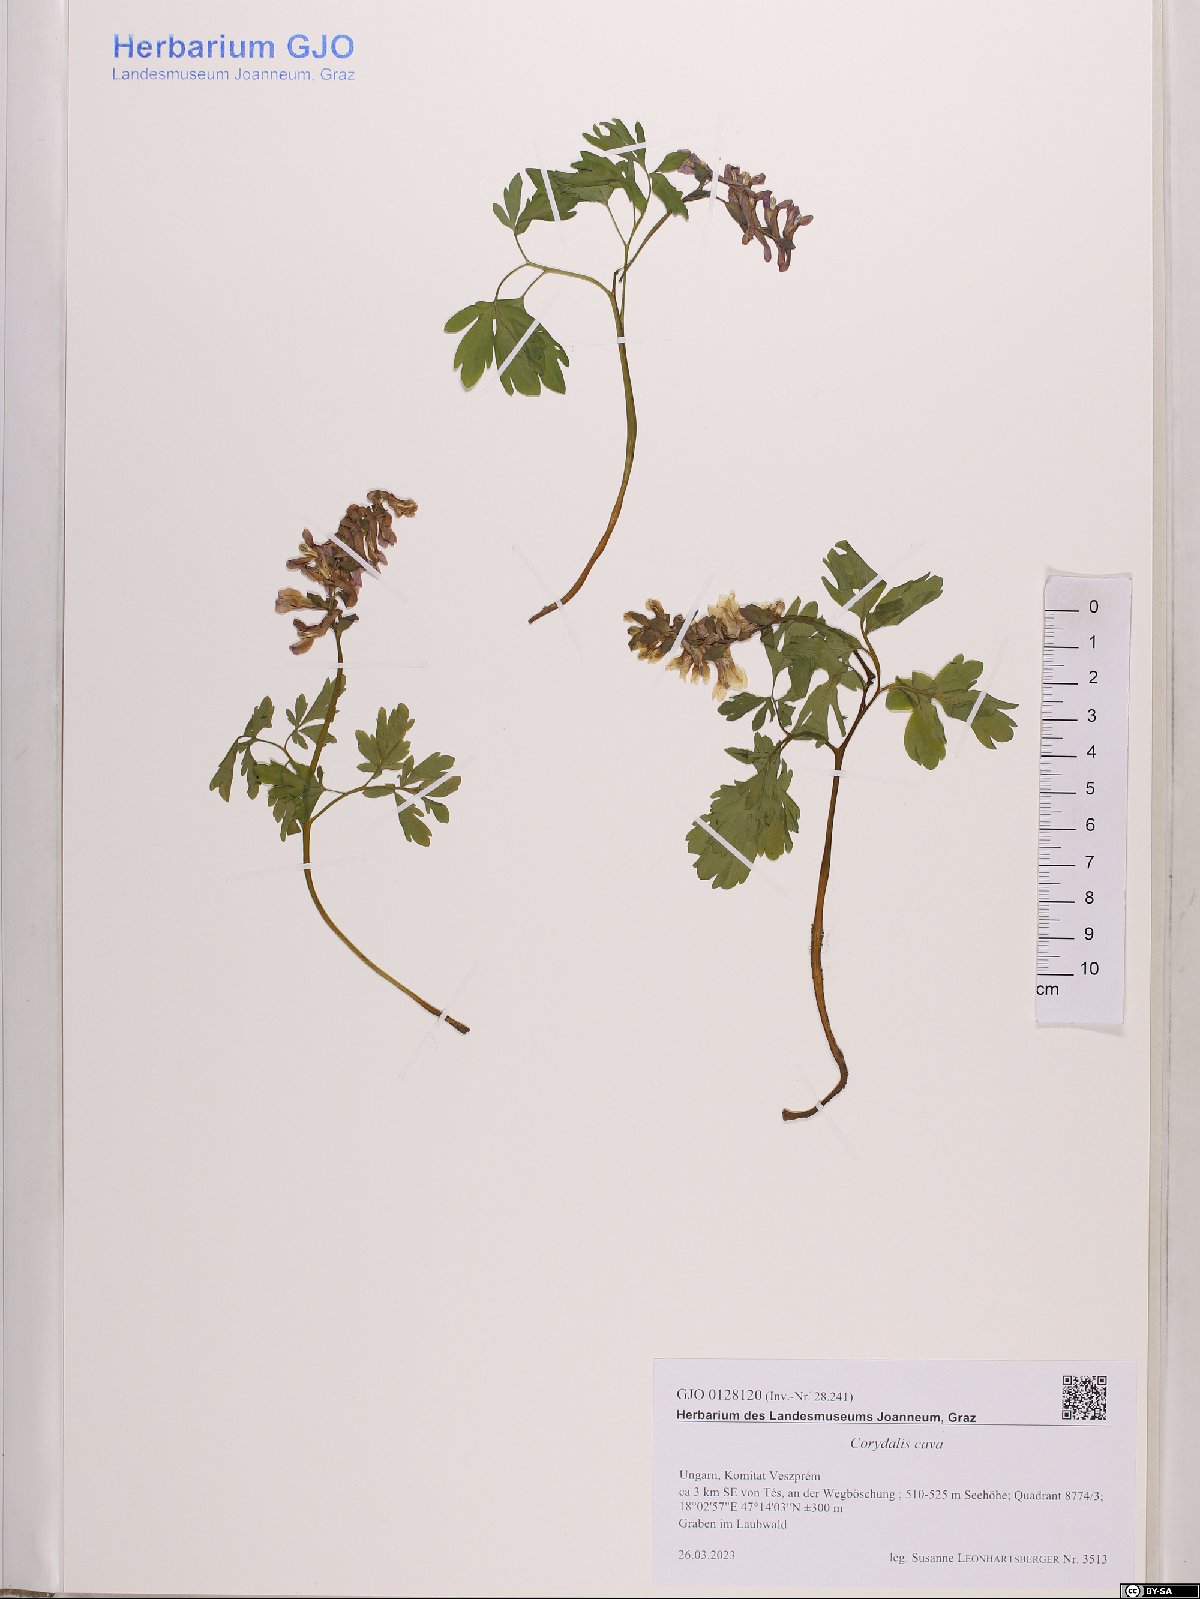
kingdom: Plantae
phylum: Tracheophyta
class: Magnoliopsida
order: Ranunculales
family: Papaveraceae
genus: Corydalis
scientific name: Corydalis cava
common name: Hollowroot
